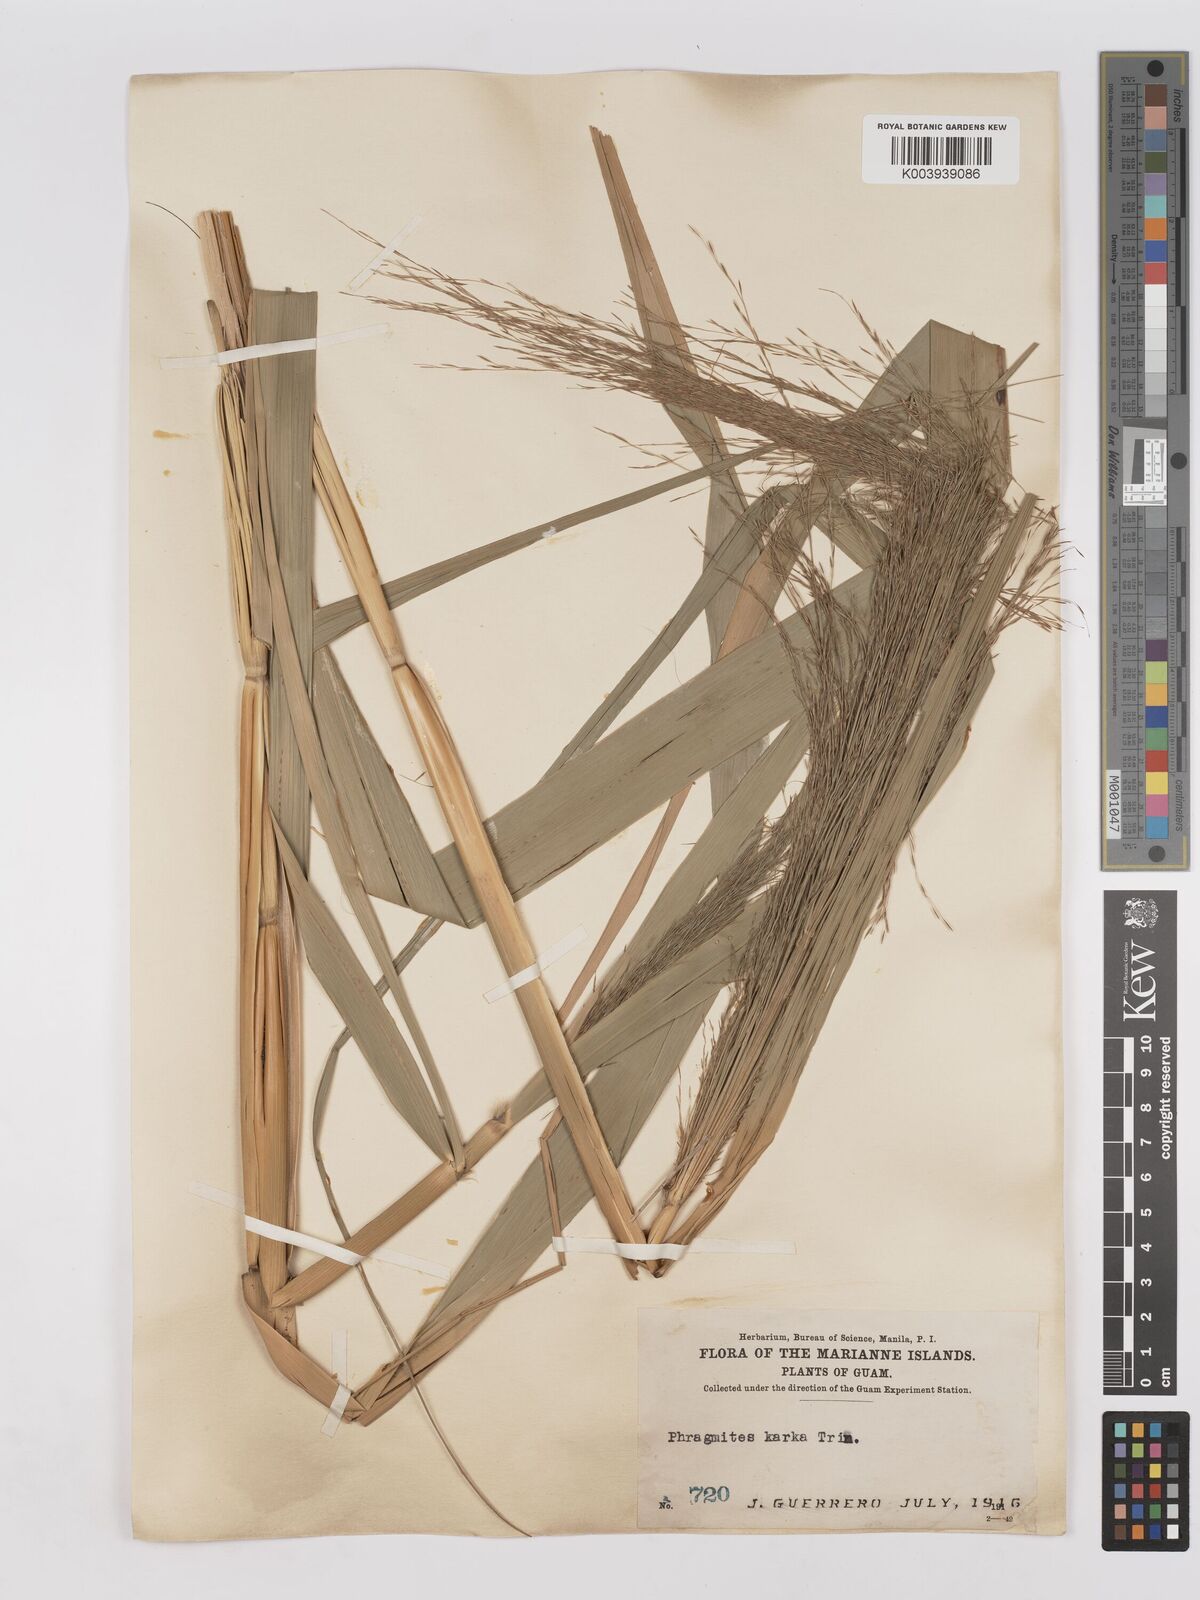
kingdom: Plantae
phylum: Tracheophyta
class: Liliopsida
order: Poales
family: Poaceae
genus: Phragmites
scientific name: Phragmites karka
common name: Tropical reed
